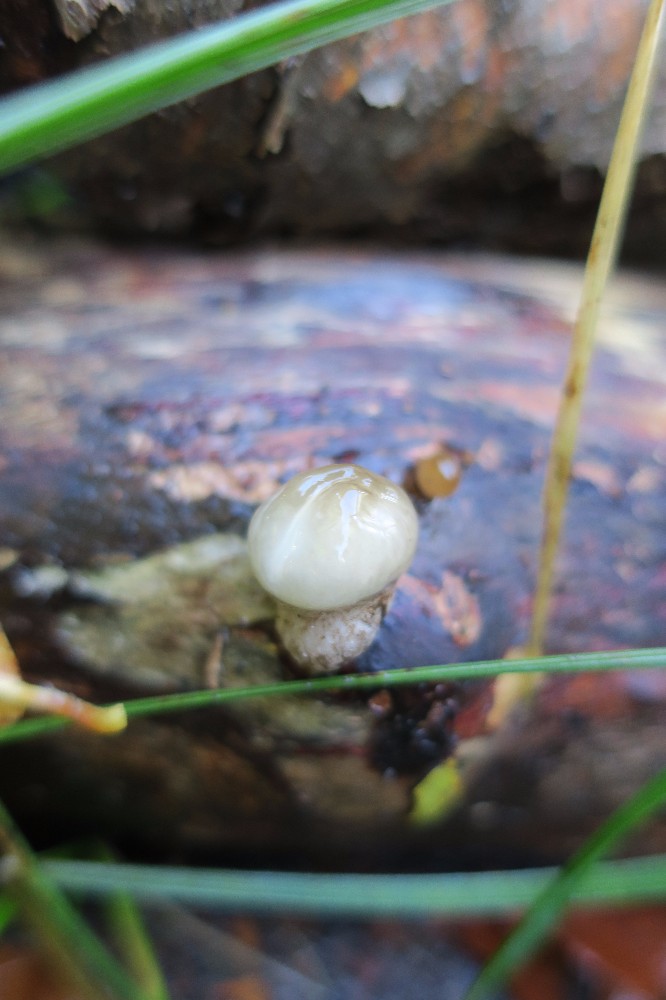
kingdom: Fungi
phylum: Basidiomycota
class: Agaricomycetes
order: Agaricales
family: Physalacriaceae
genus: Mucidula
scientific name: Mucidula mucida
